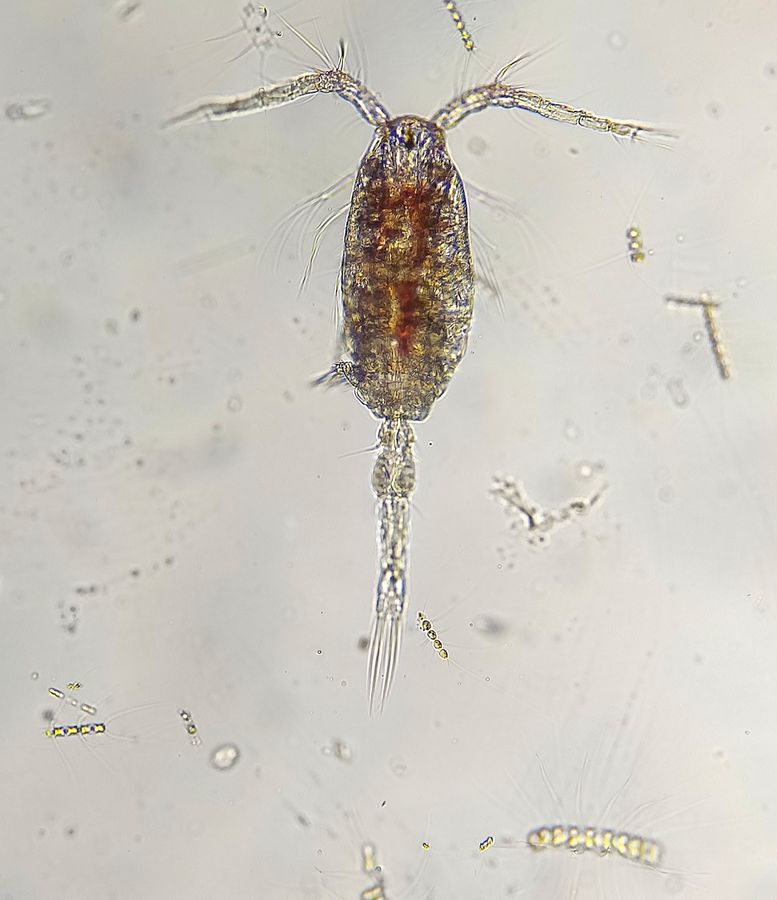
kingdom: Animalia
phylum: Arthropoda
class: Copepoda
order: Cyclopoida
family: Oithonidae
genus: Oithona
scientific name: Oithona similis
